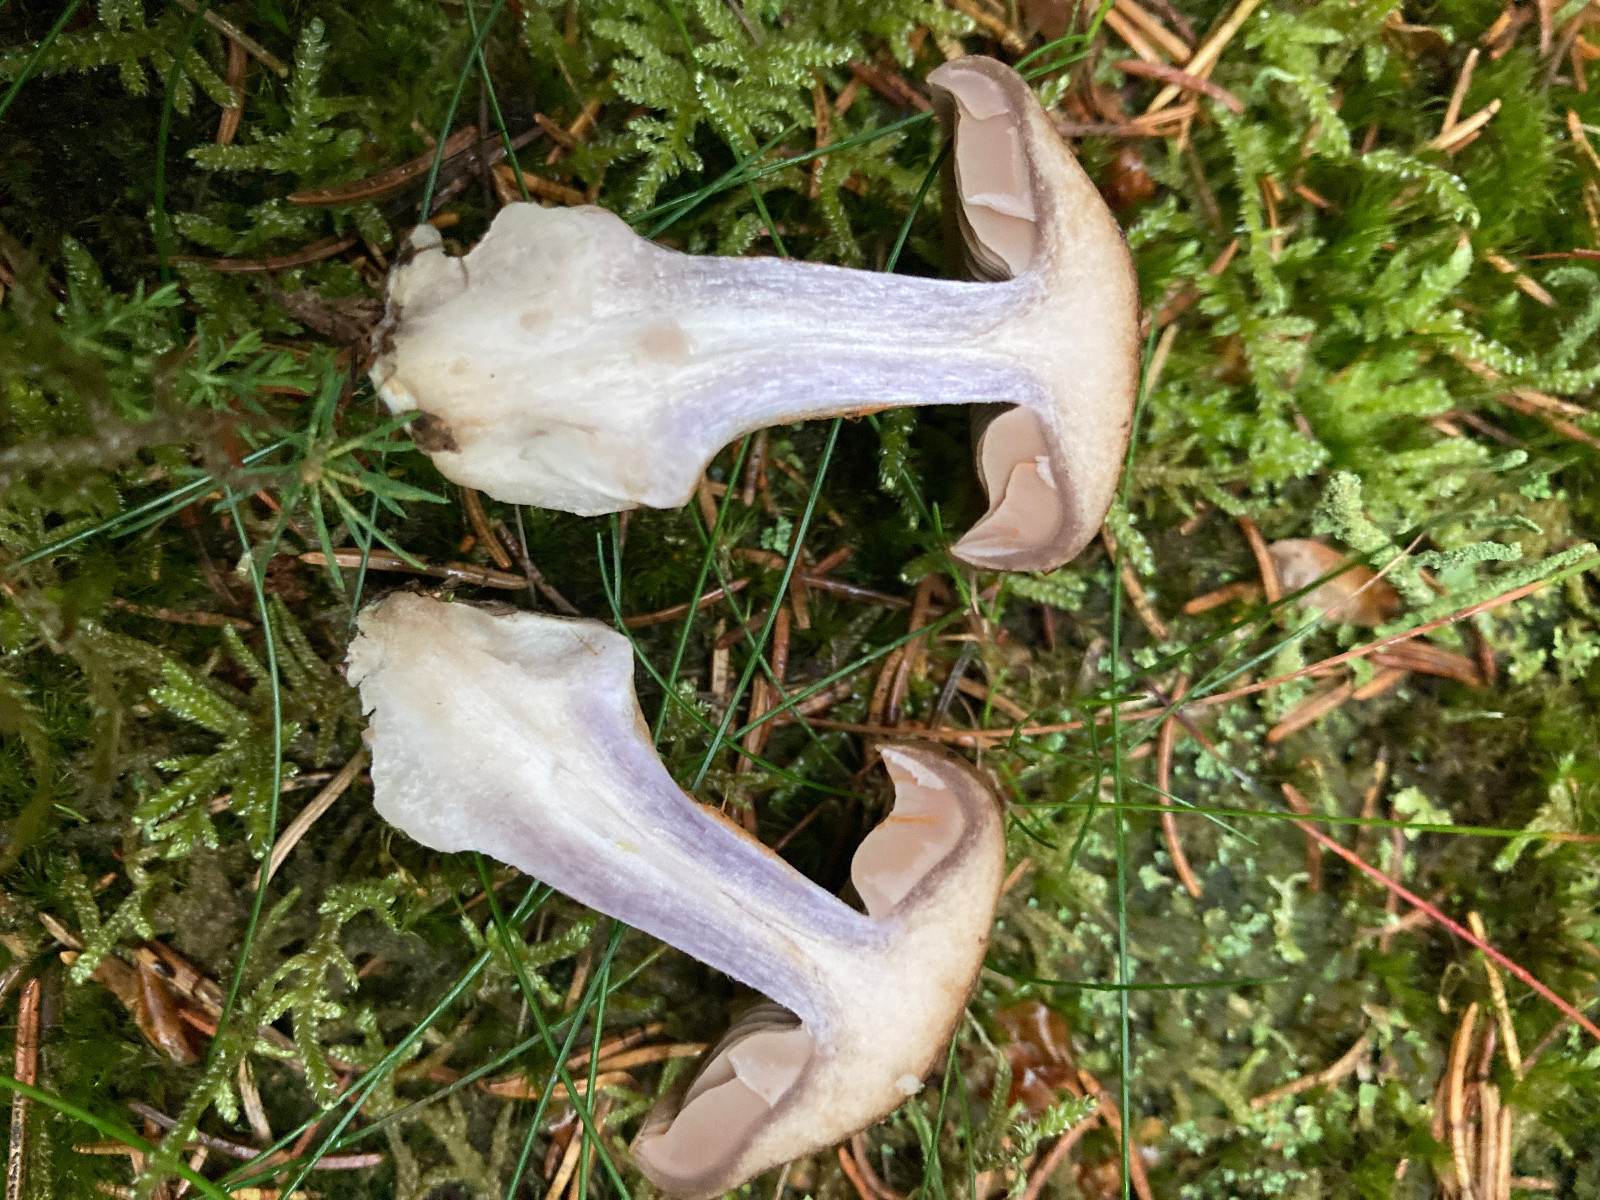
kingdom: Fungi
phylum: Basidiomycota
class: Agaricomycetes
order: Agaricales
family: Cortinariaceae
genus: Thaxterogaster
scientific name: Thaxterogaster sphagnophilus
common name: vandplettet slørhat
